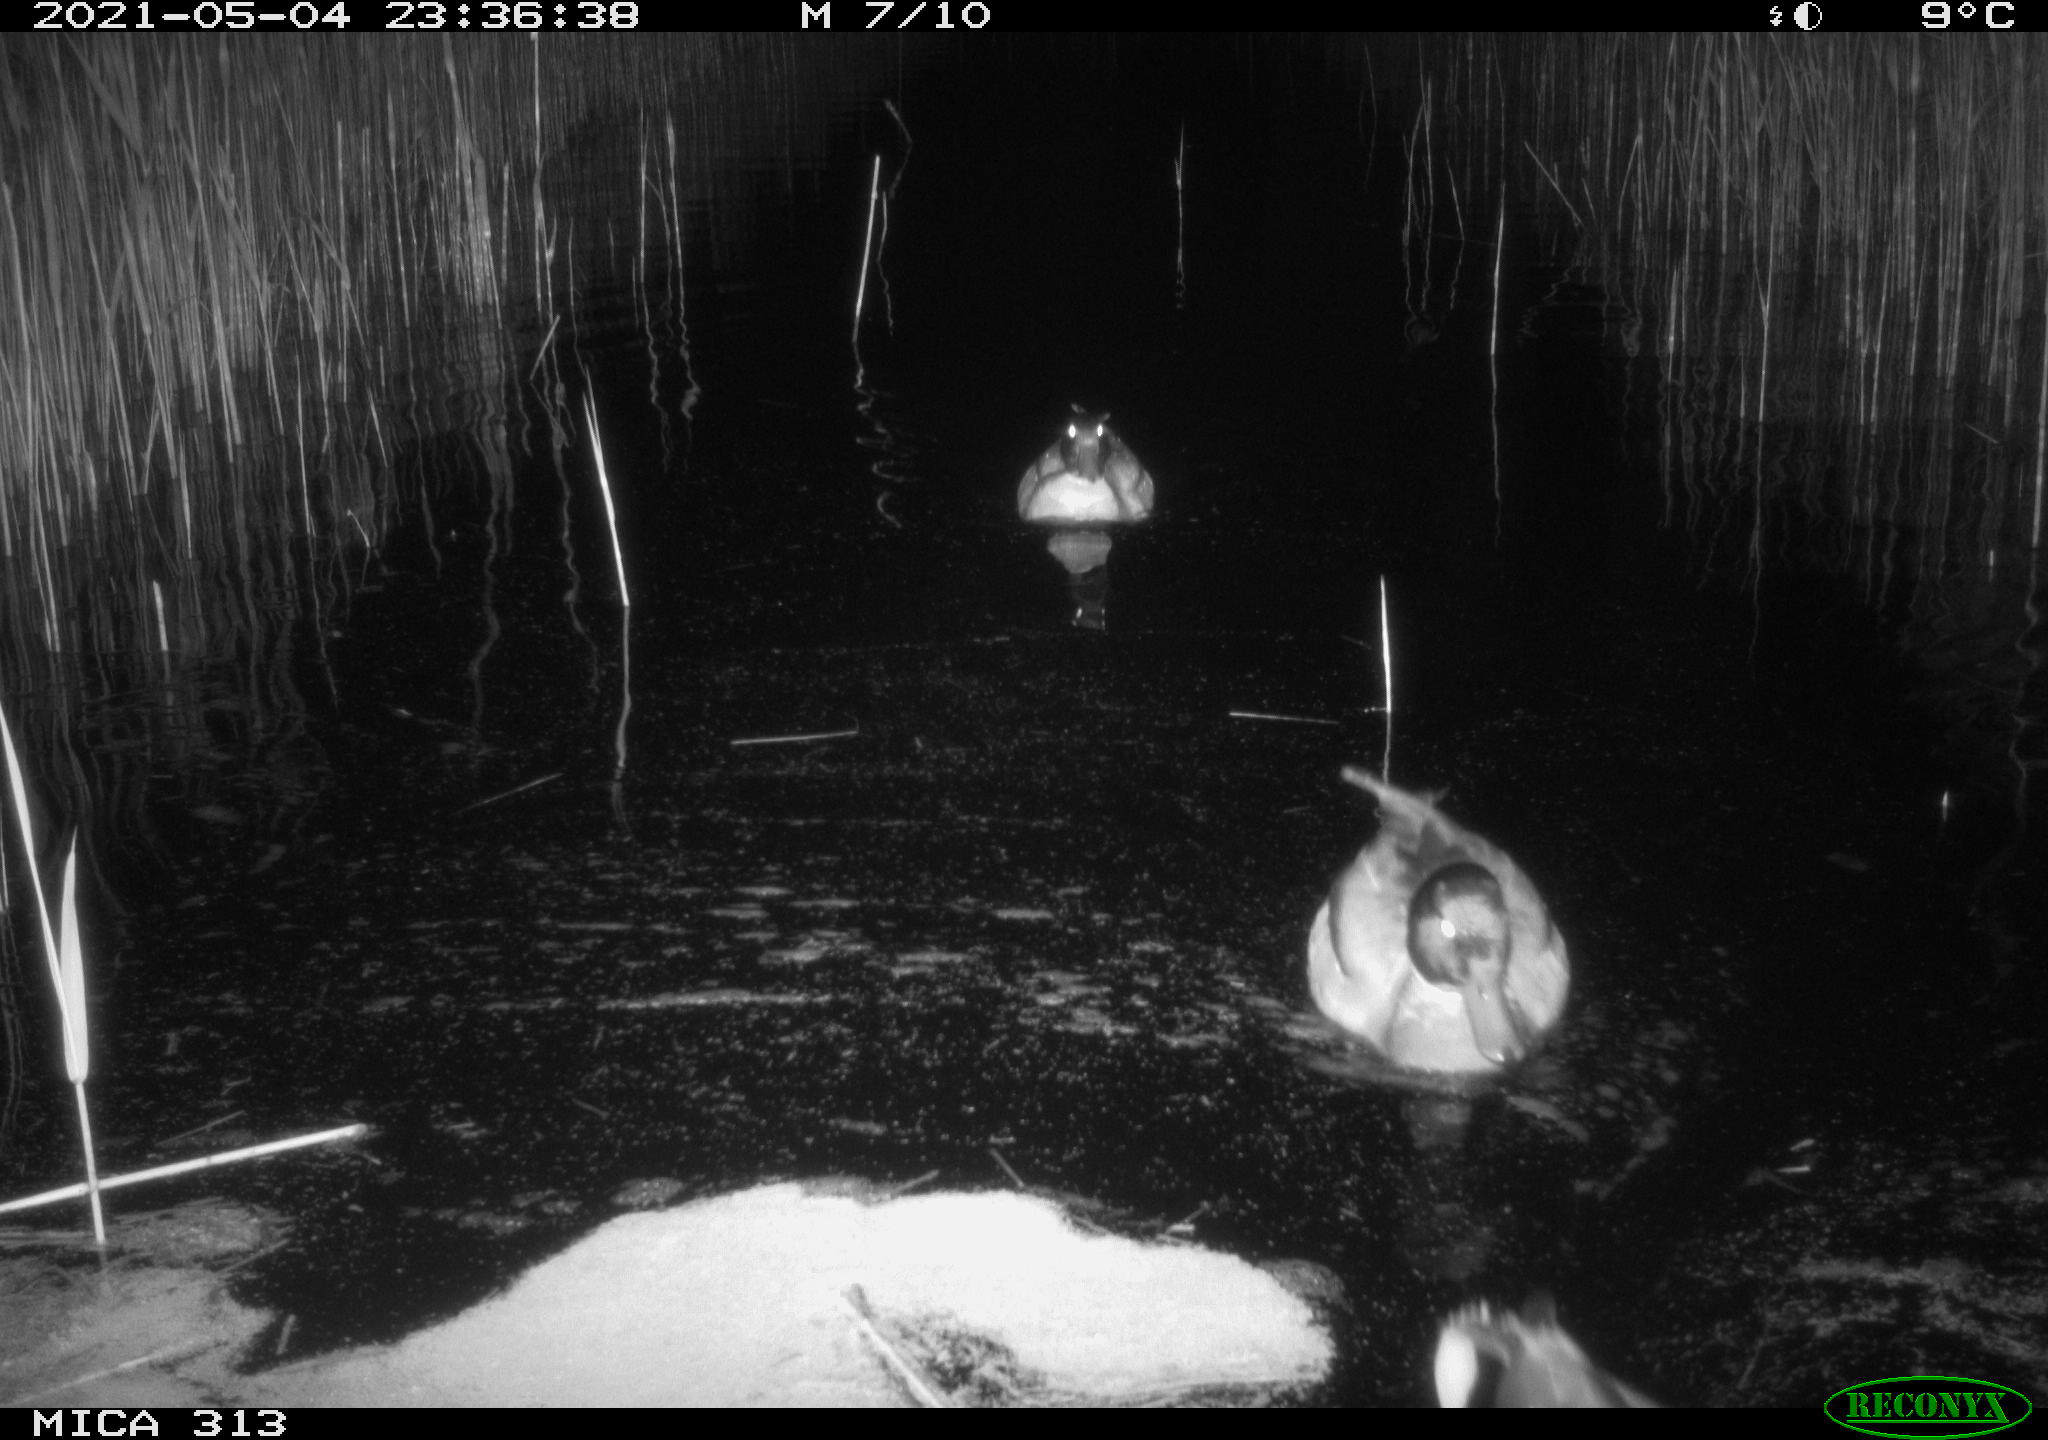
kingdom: Animalia
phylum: Chordata
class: Aves
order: Gruiformes
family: Rallidae
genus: Fulica
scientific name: Fulica atra
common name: Eurasian coot
